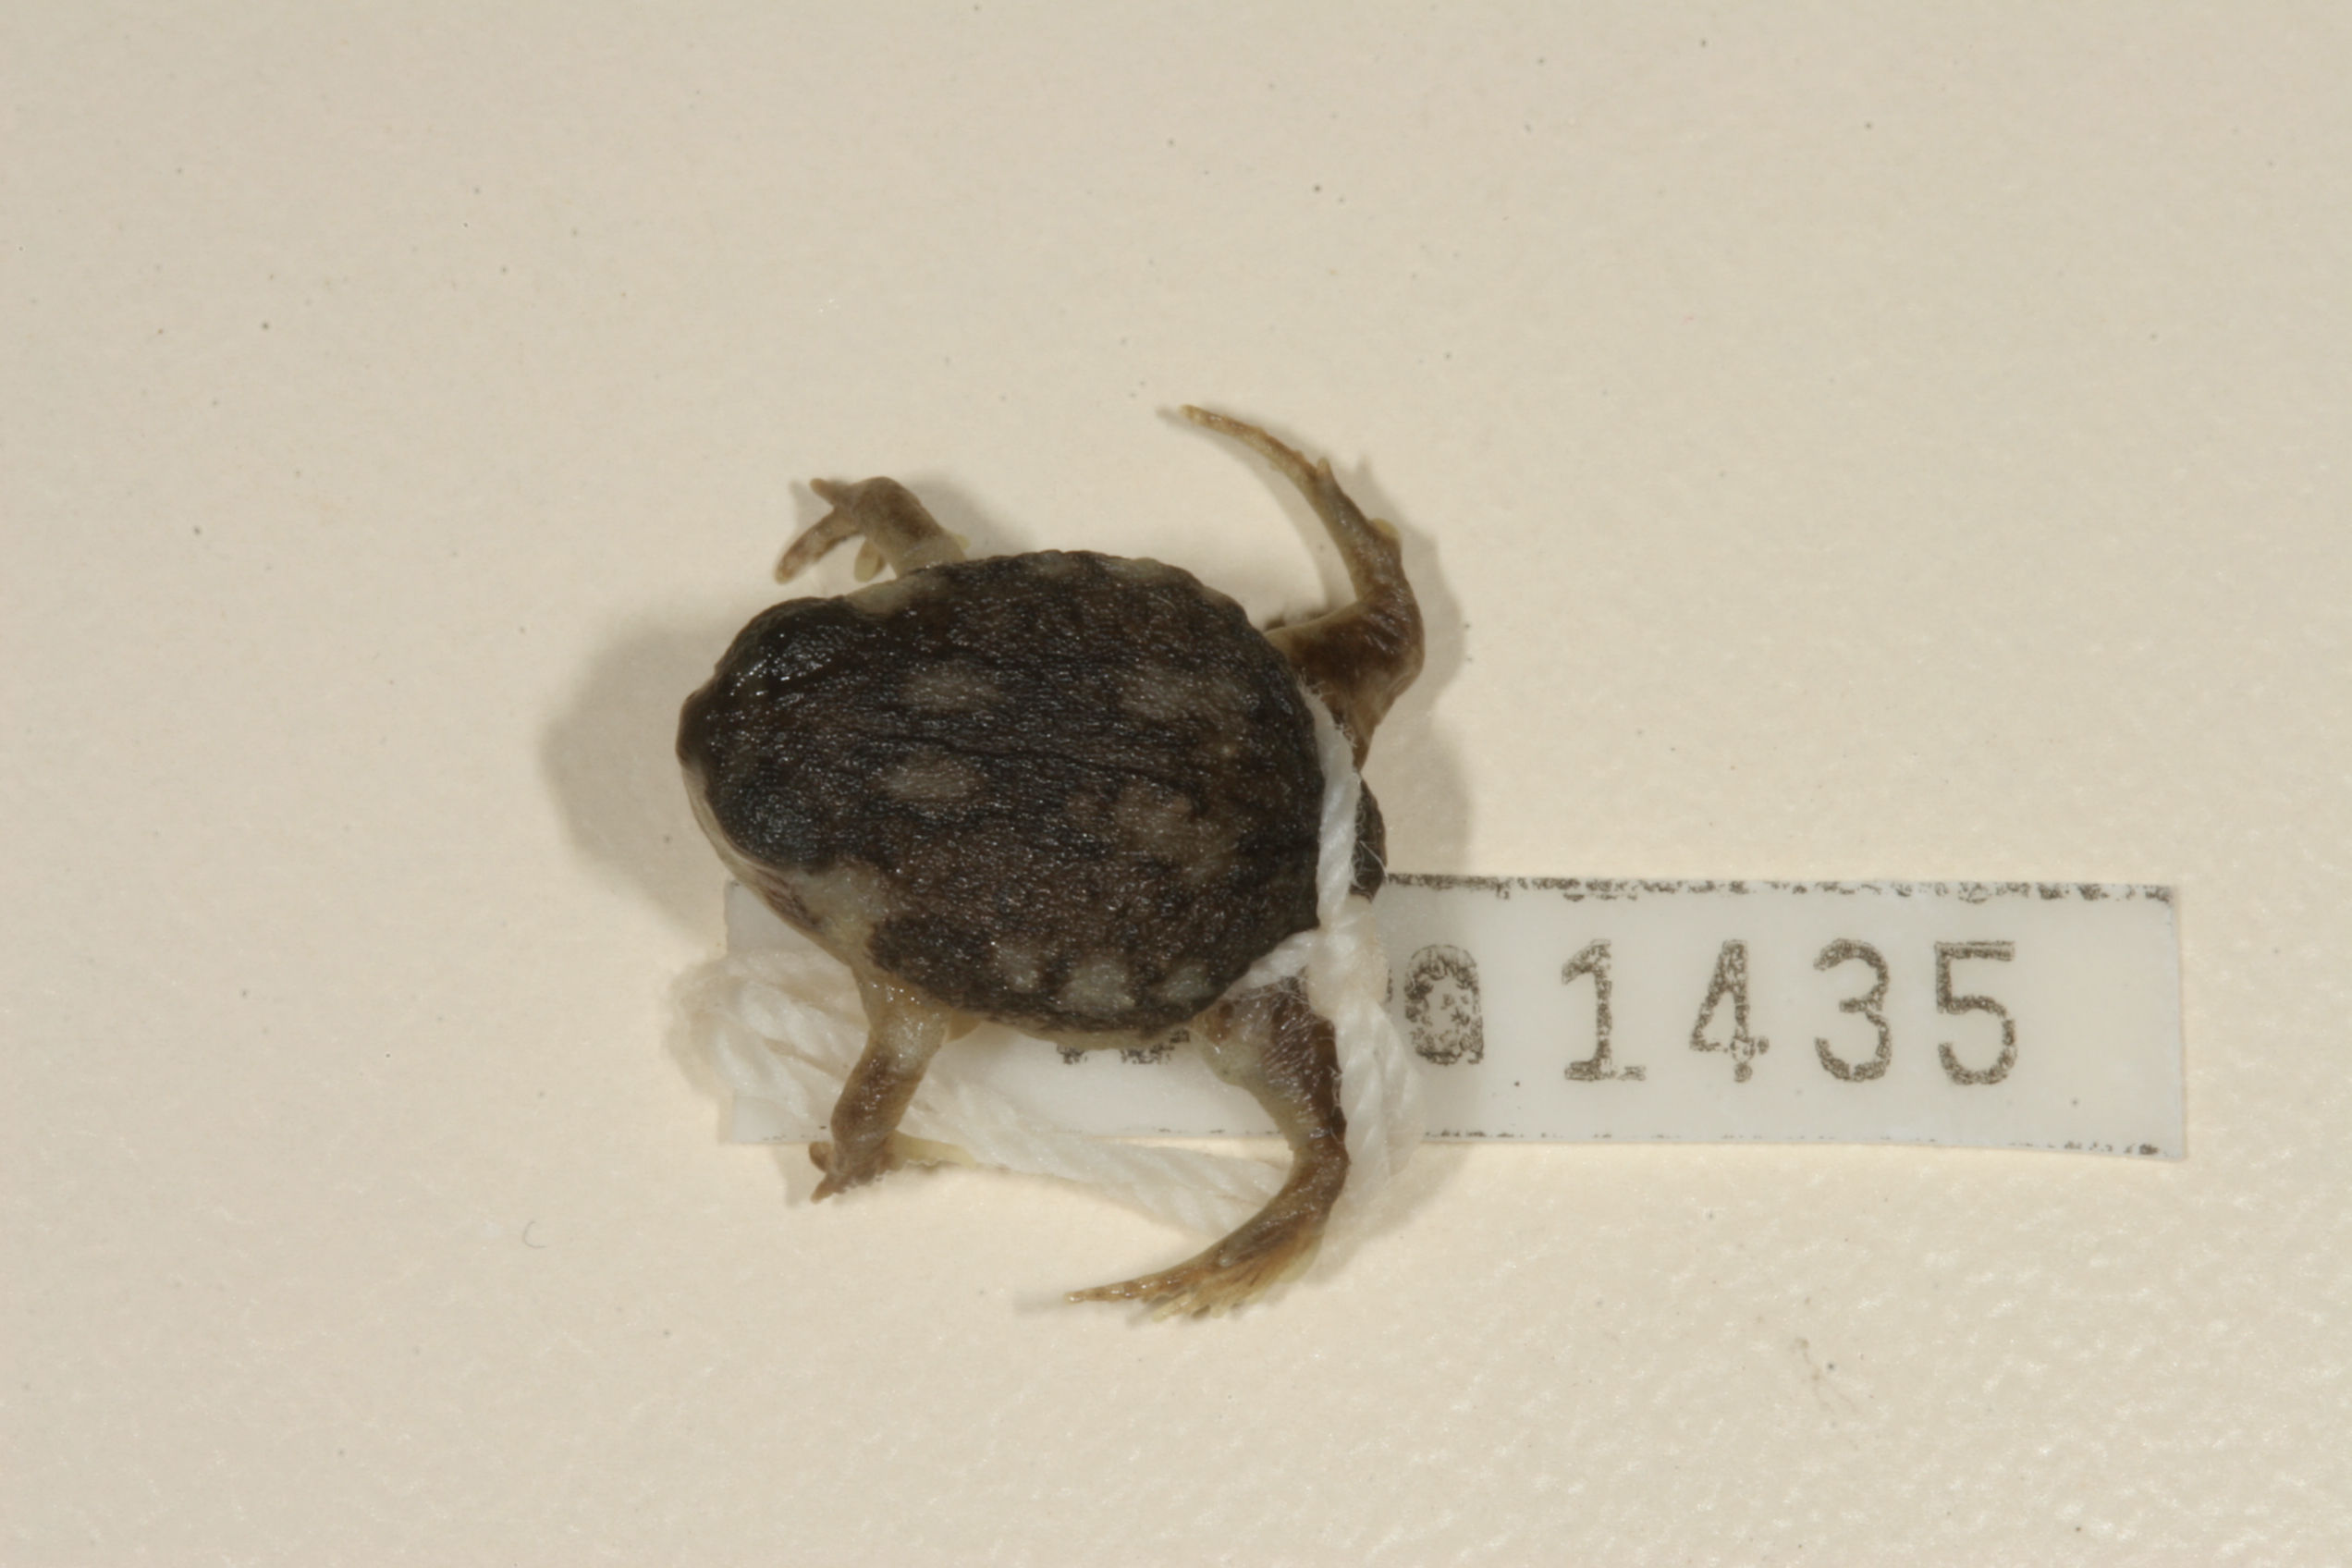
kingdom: Animalia
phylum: Chordata
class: Amphibia
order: Anura
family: Brevicipitidae
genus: Breviceps
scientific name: Breviceps adspersus
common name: Common rain frog
